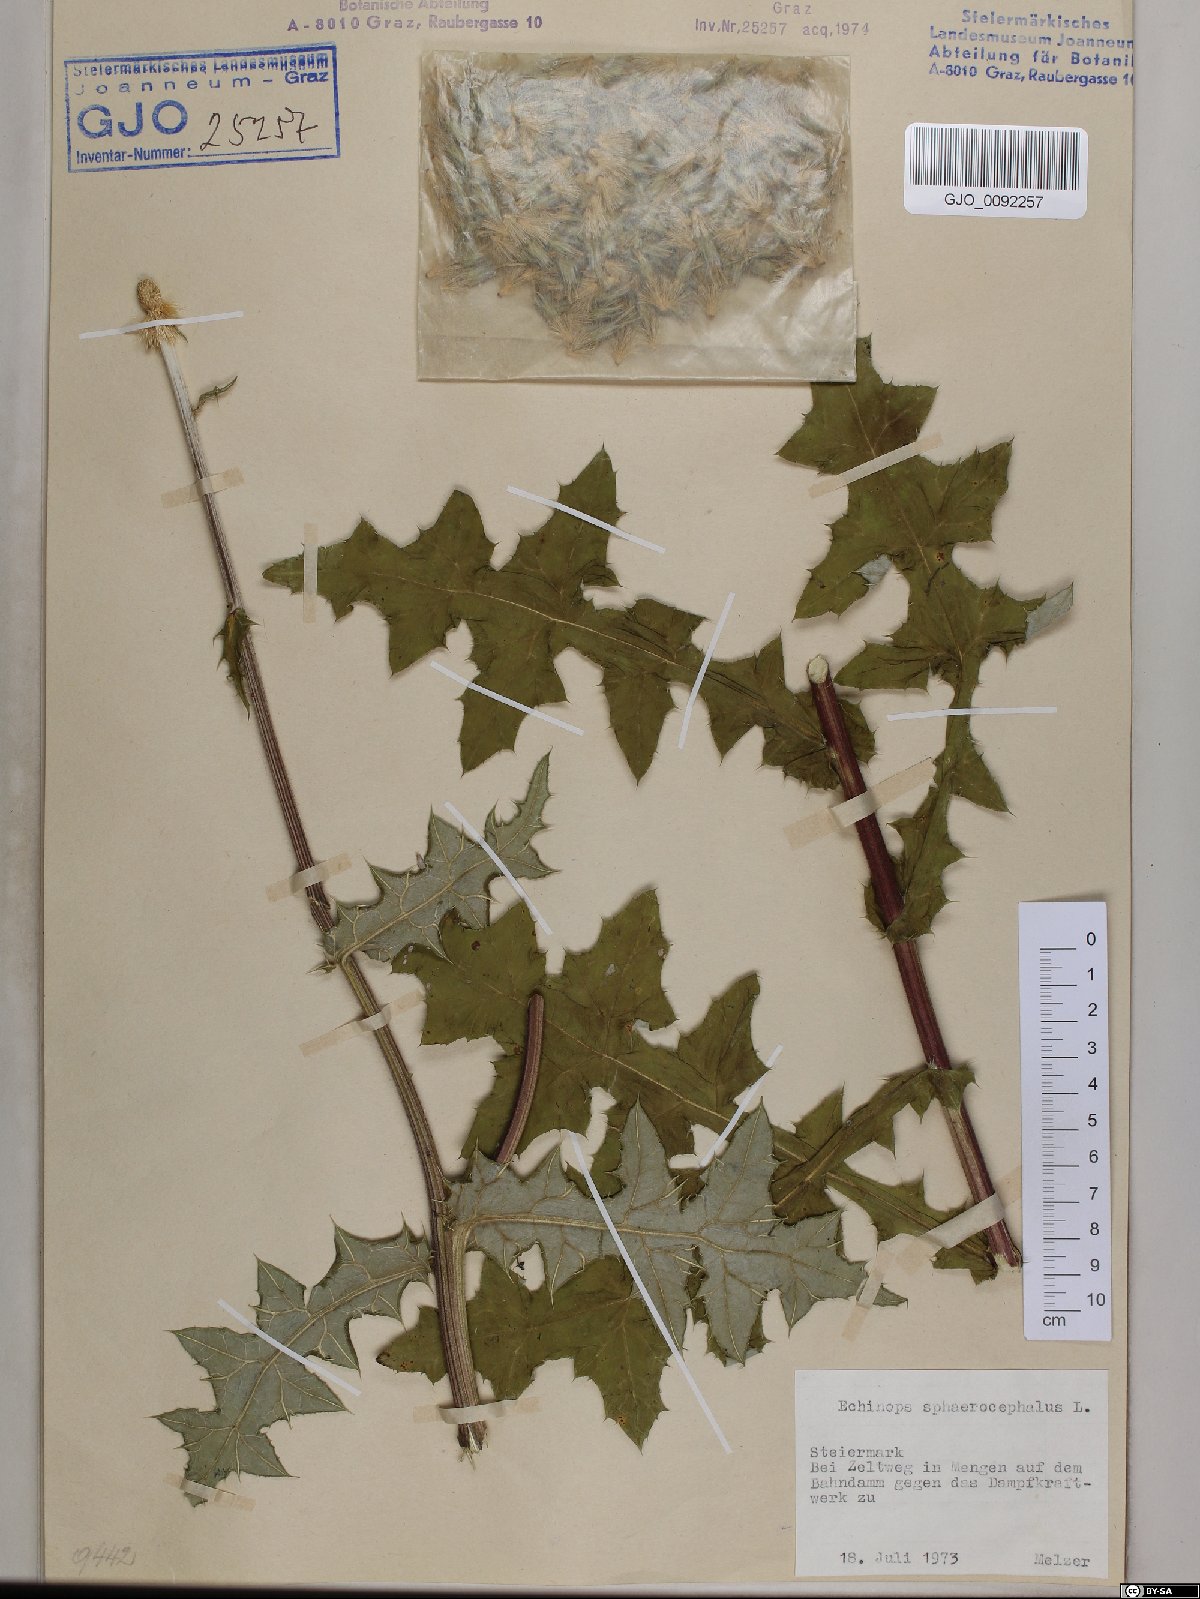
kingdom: Plantae
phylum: Tracheophyta
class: Magnoliopsida
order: Asterales
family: Asteraceae
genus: Echinops
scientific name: Echinops sphaerocephalus
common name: Glandular globe-thistle
